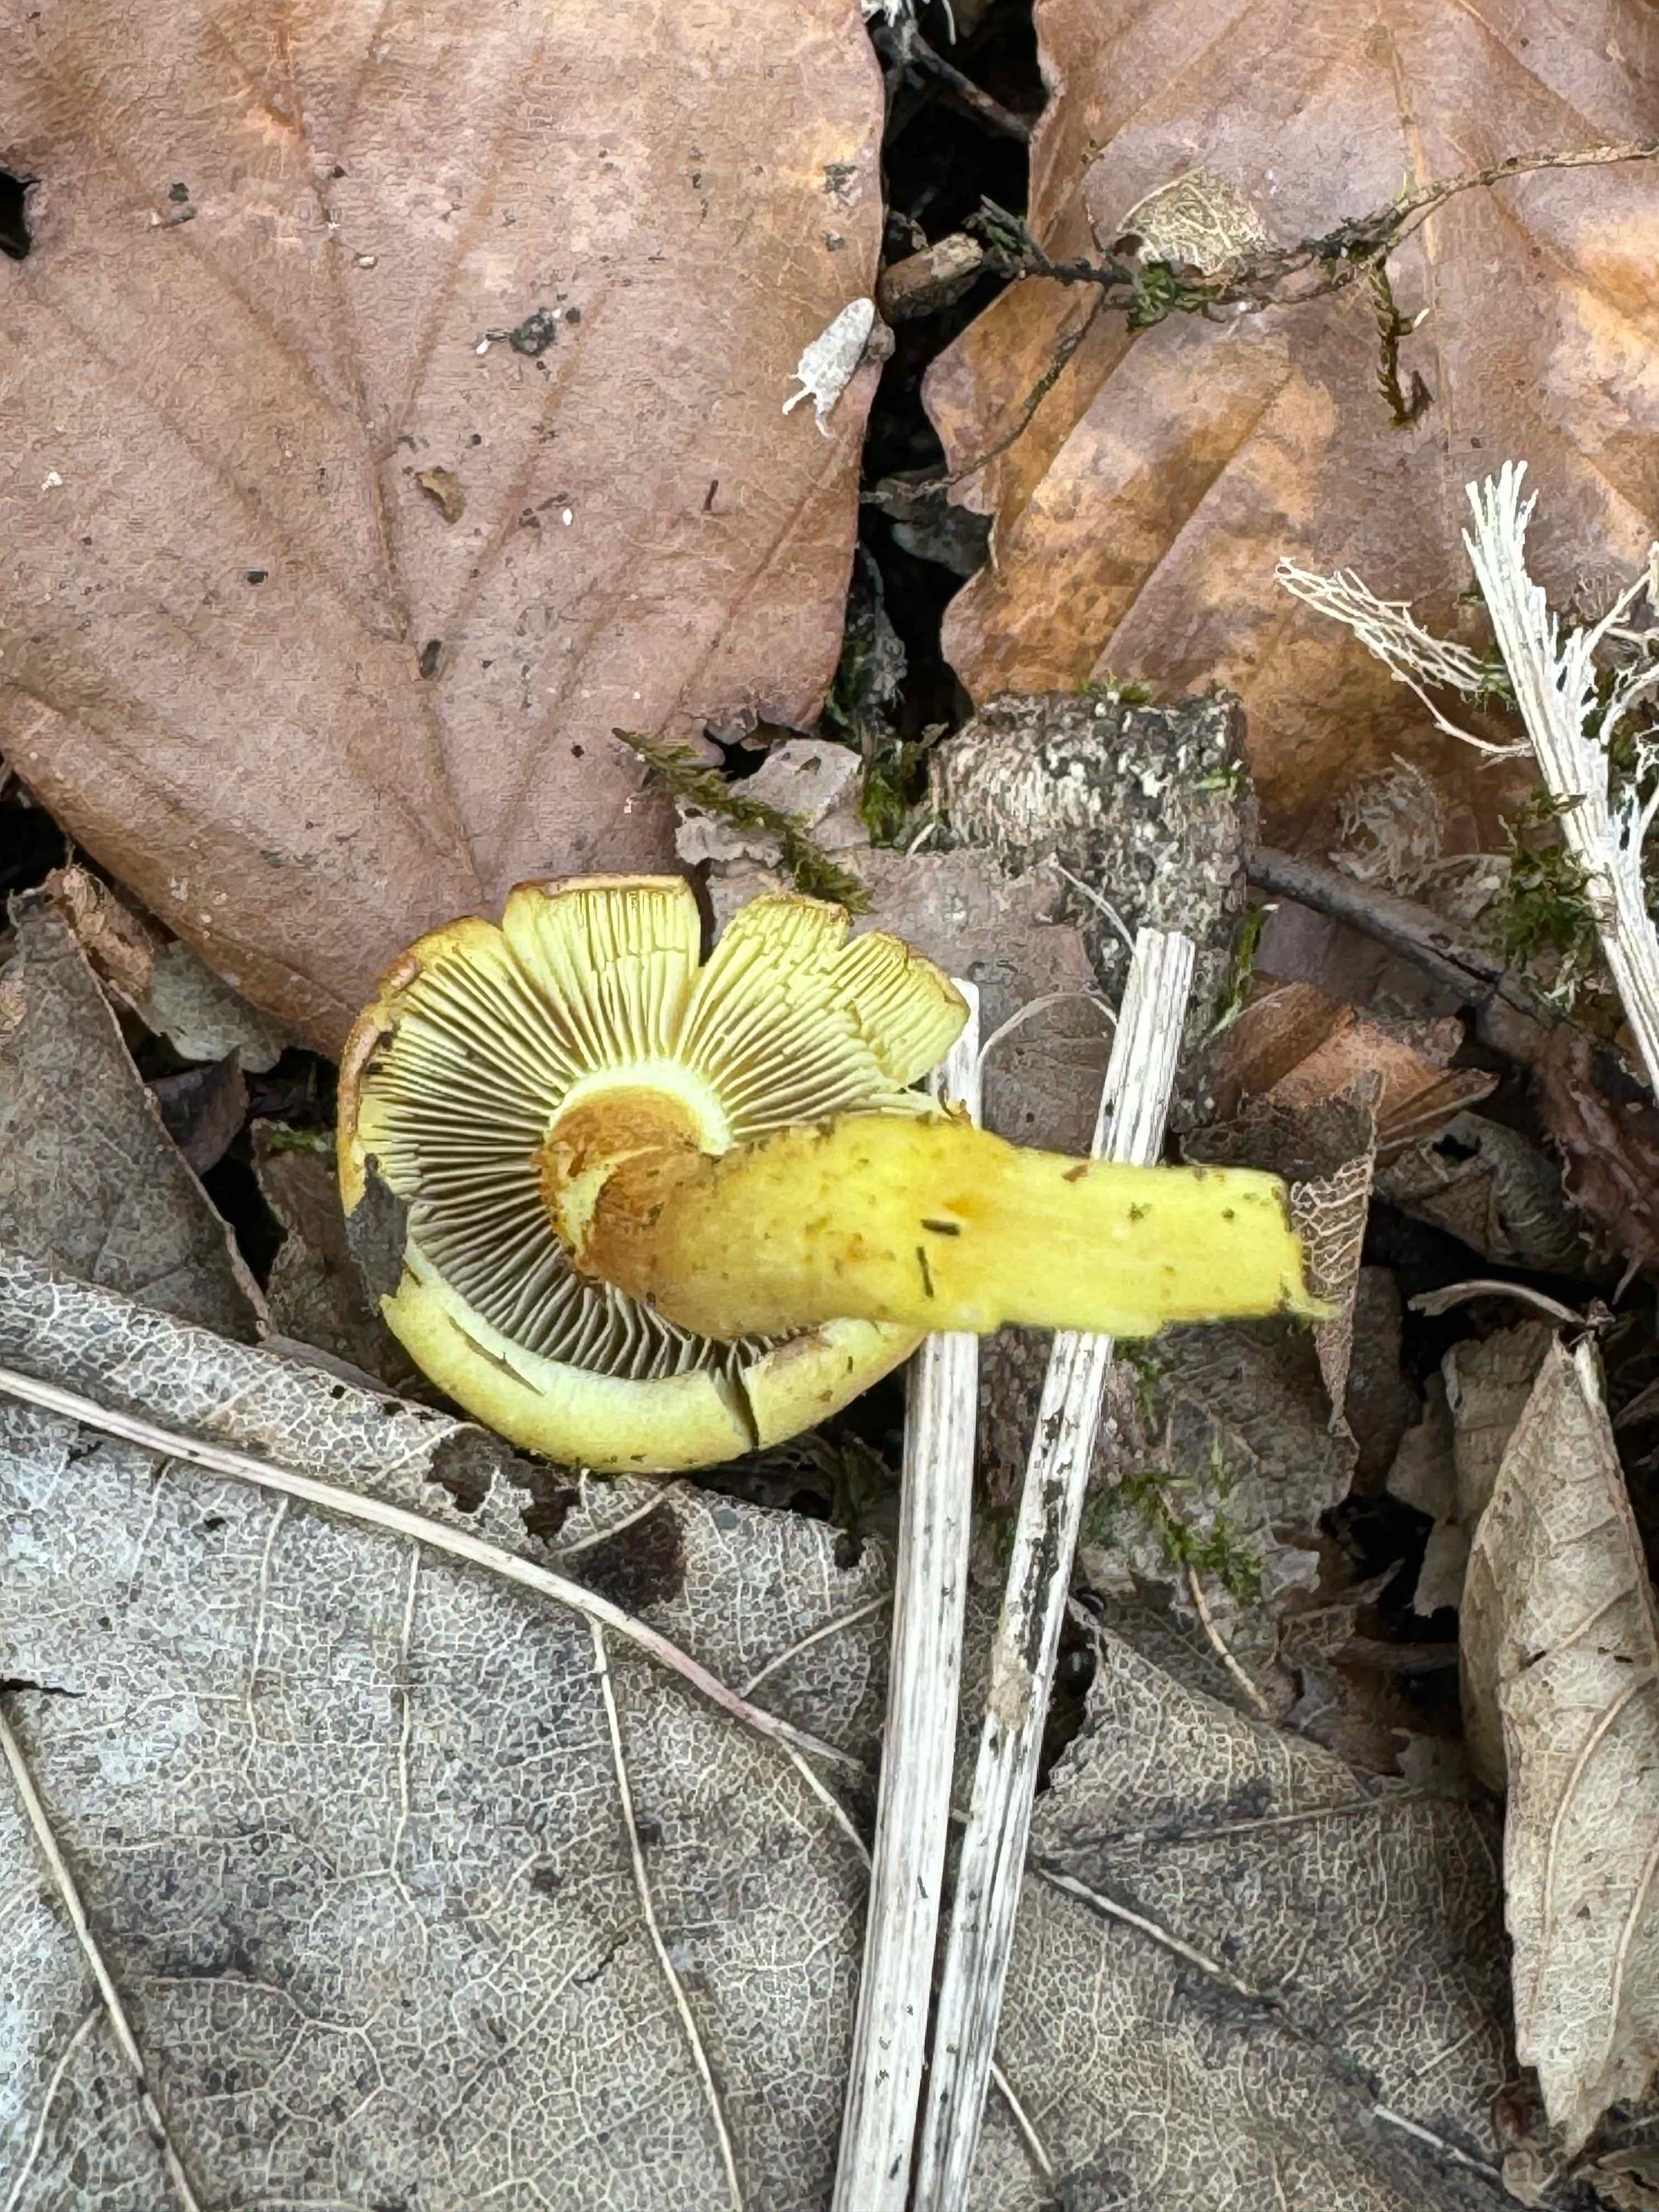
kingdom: Fungi
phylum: Basidiomycota
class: Agaricomycetes
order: Agaricales
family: Strophariaceae
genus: Hypholoma
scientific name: Hypholoma fasciculare
